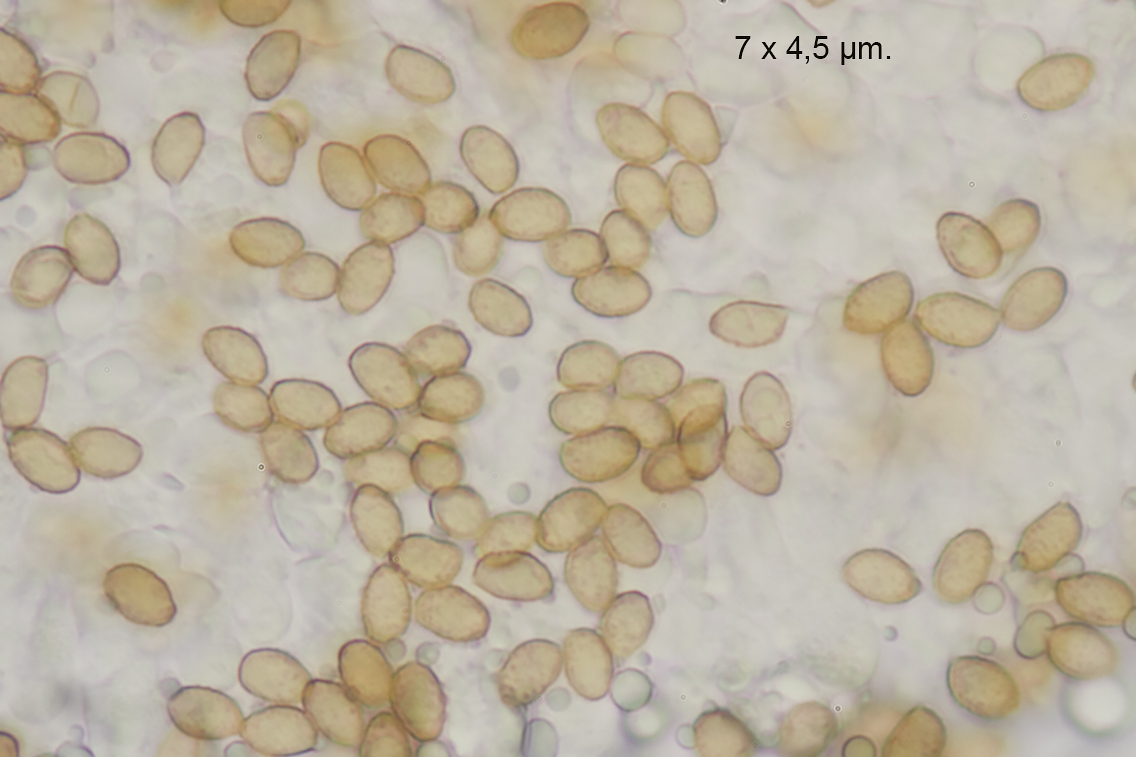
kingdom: Fungi
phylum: Basidiomycota
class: Agaricomycetes
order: Agaricales
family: Cortinariaceae
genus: Thaxterogaster
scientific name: Thaxterogaster azureomarginatus
